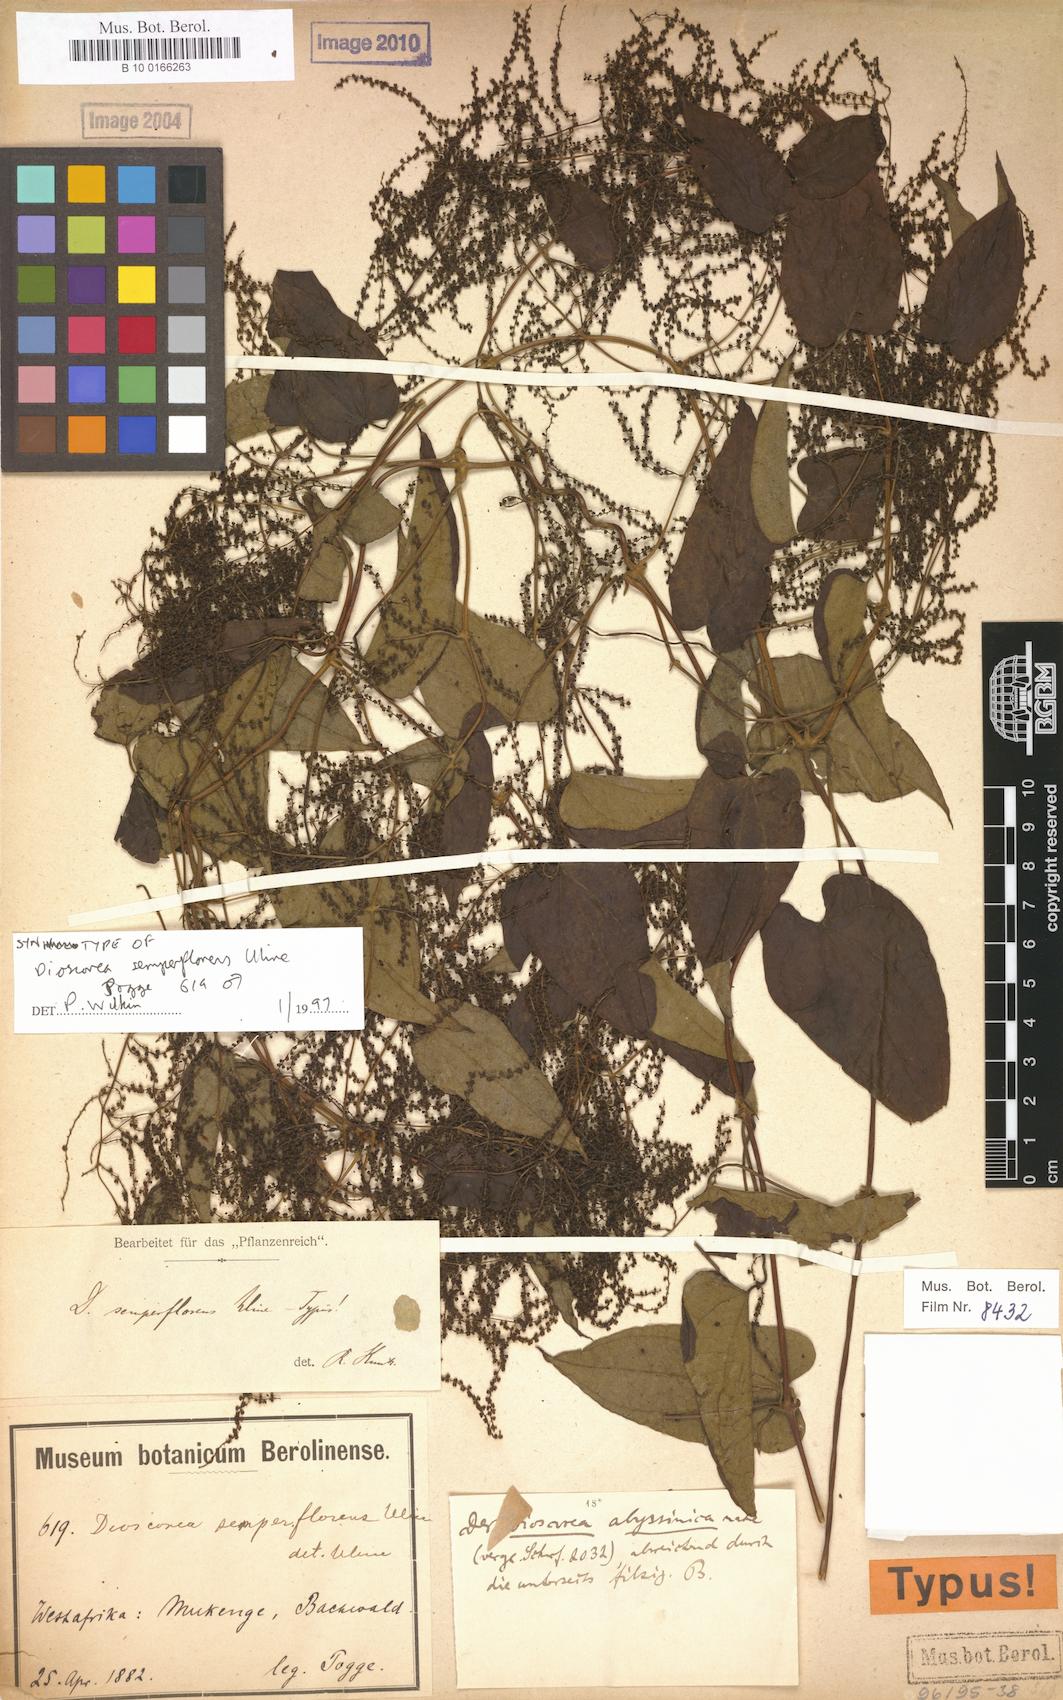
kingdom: Plantae
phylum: Tracheophyta
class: Liliopsida
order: Dioscoreales
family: Dioscoreaceae
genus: Dioscorea
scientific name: Dioscorea semperflorens
